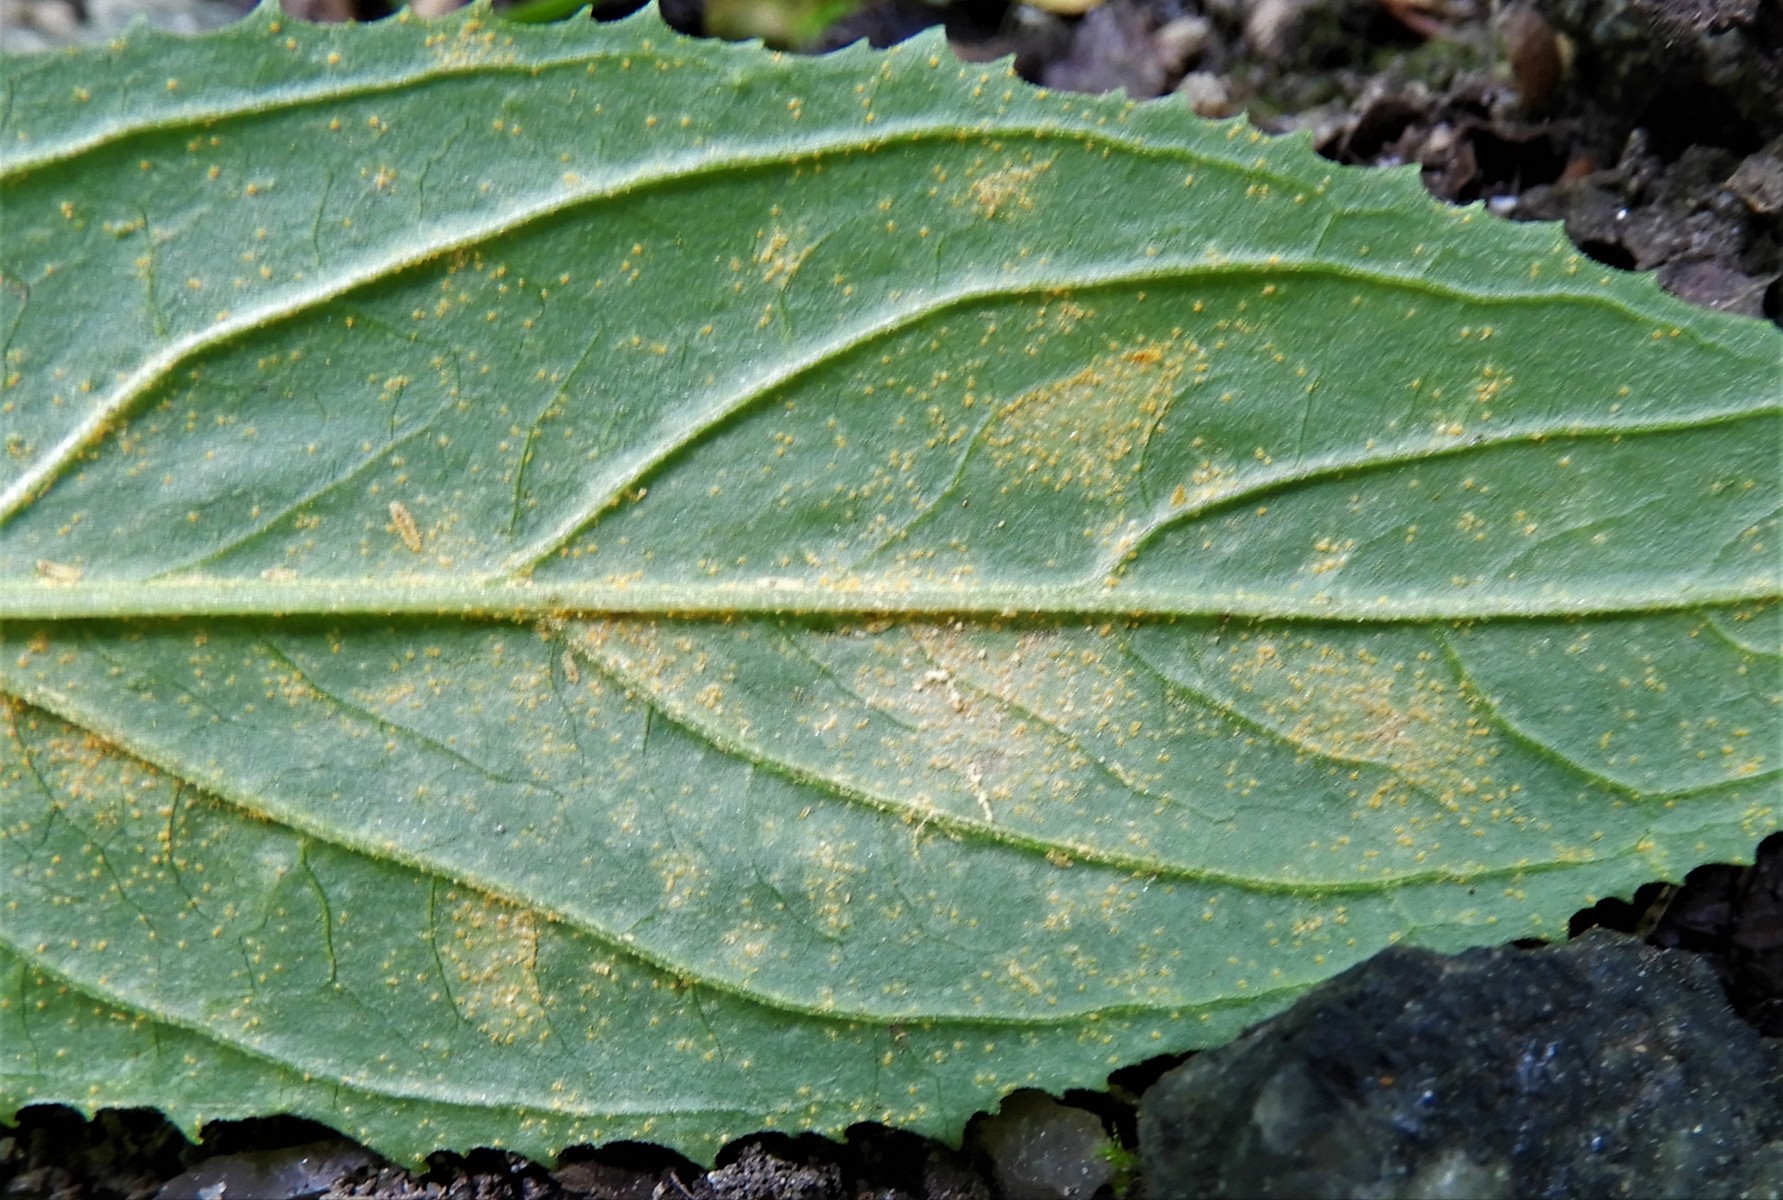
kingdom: Fungi
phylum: Basidiomycota
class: Pucciniomycetes
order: Pucciniales
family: Pucciniastraceae
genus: Pucciniastrum
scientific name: Pucciniastrum epilobii
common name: dueurt-nålerust
